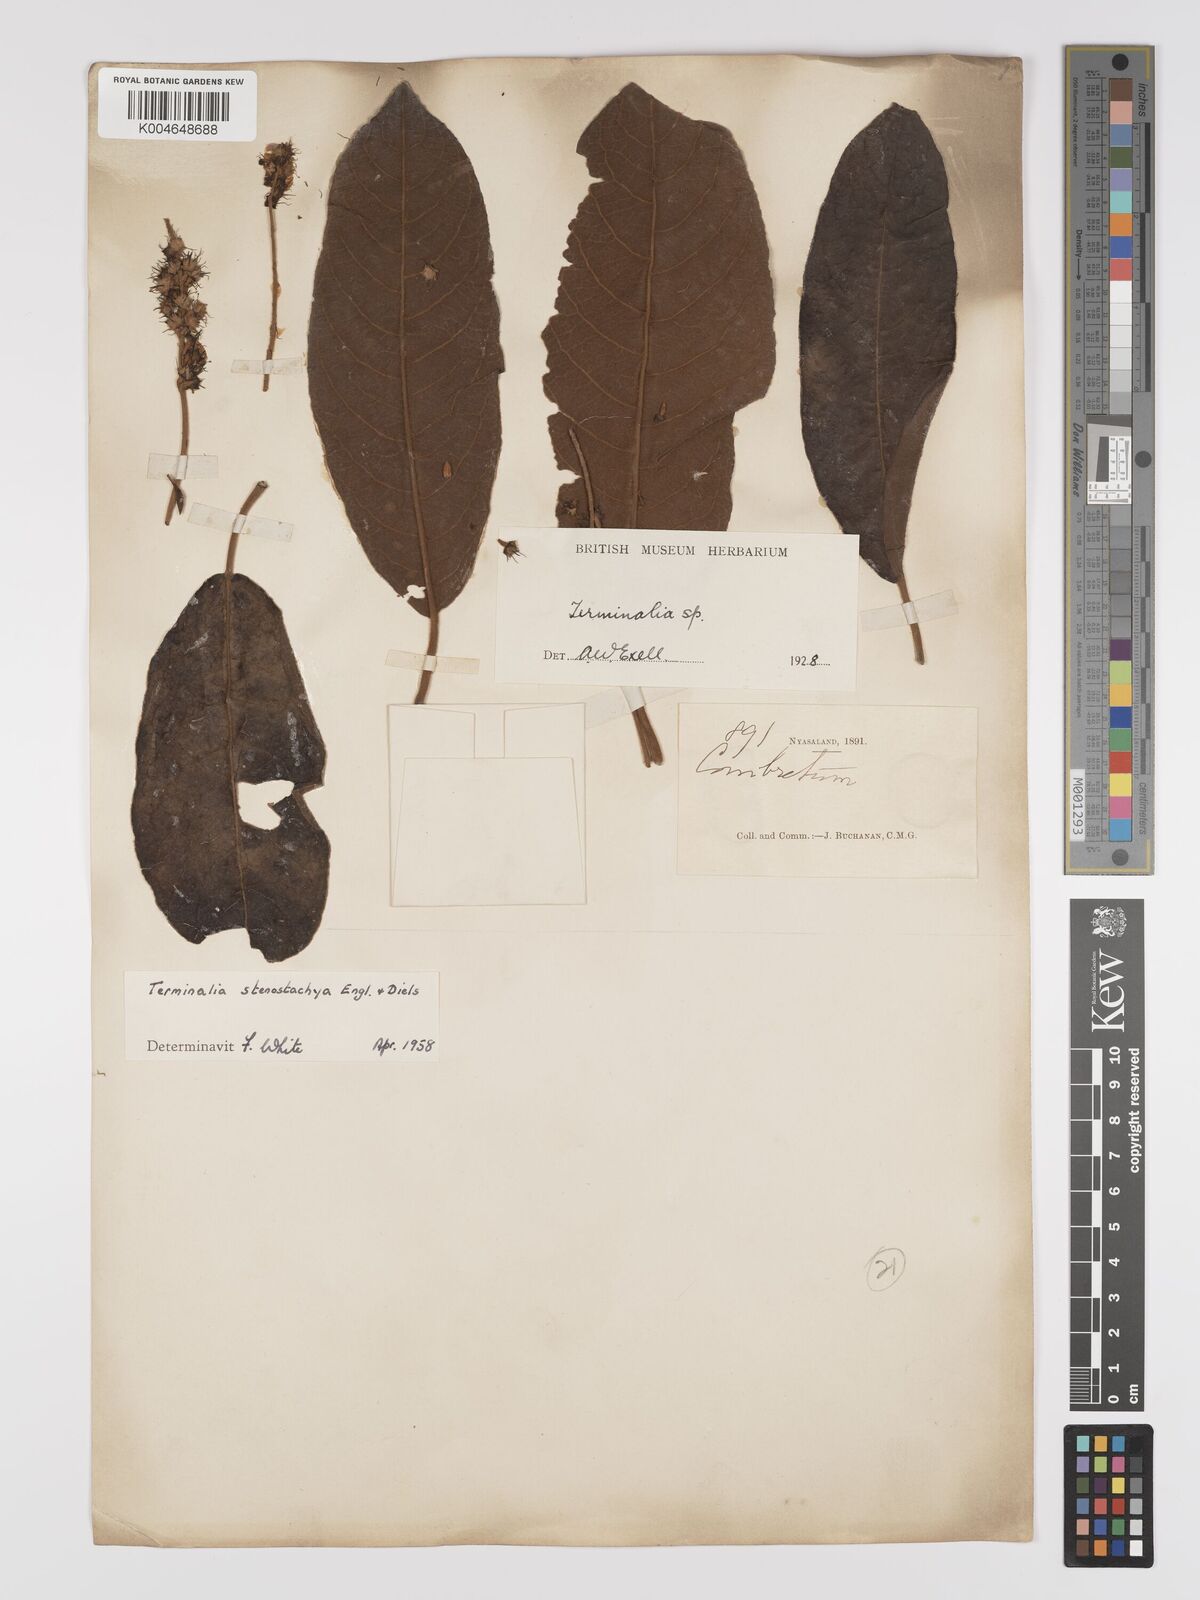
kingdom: Plantae
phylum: Tracheophyta
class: Magnoliopsida
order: Myrtales
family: Combretaceae
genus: Terminalia
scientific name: Terminalia stenostachya
